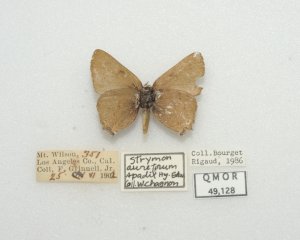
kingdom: Animalia
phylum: Arthropoda
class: Insecta
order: Lepidoptera
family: Lycaenidae
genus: Satyrium
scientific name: Satyrium calanus
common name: Gold-hunter's Hairstreak
